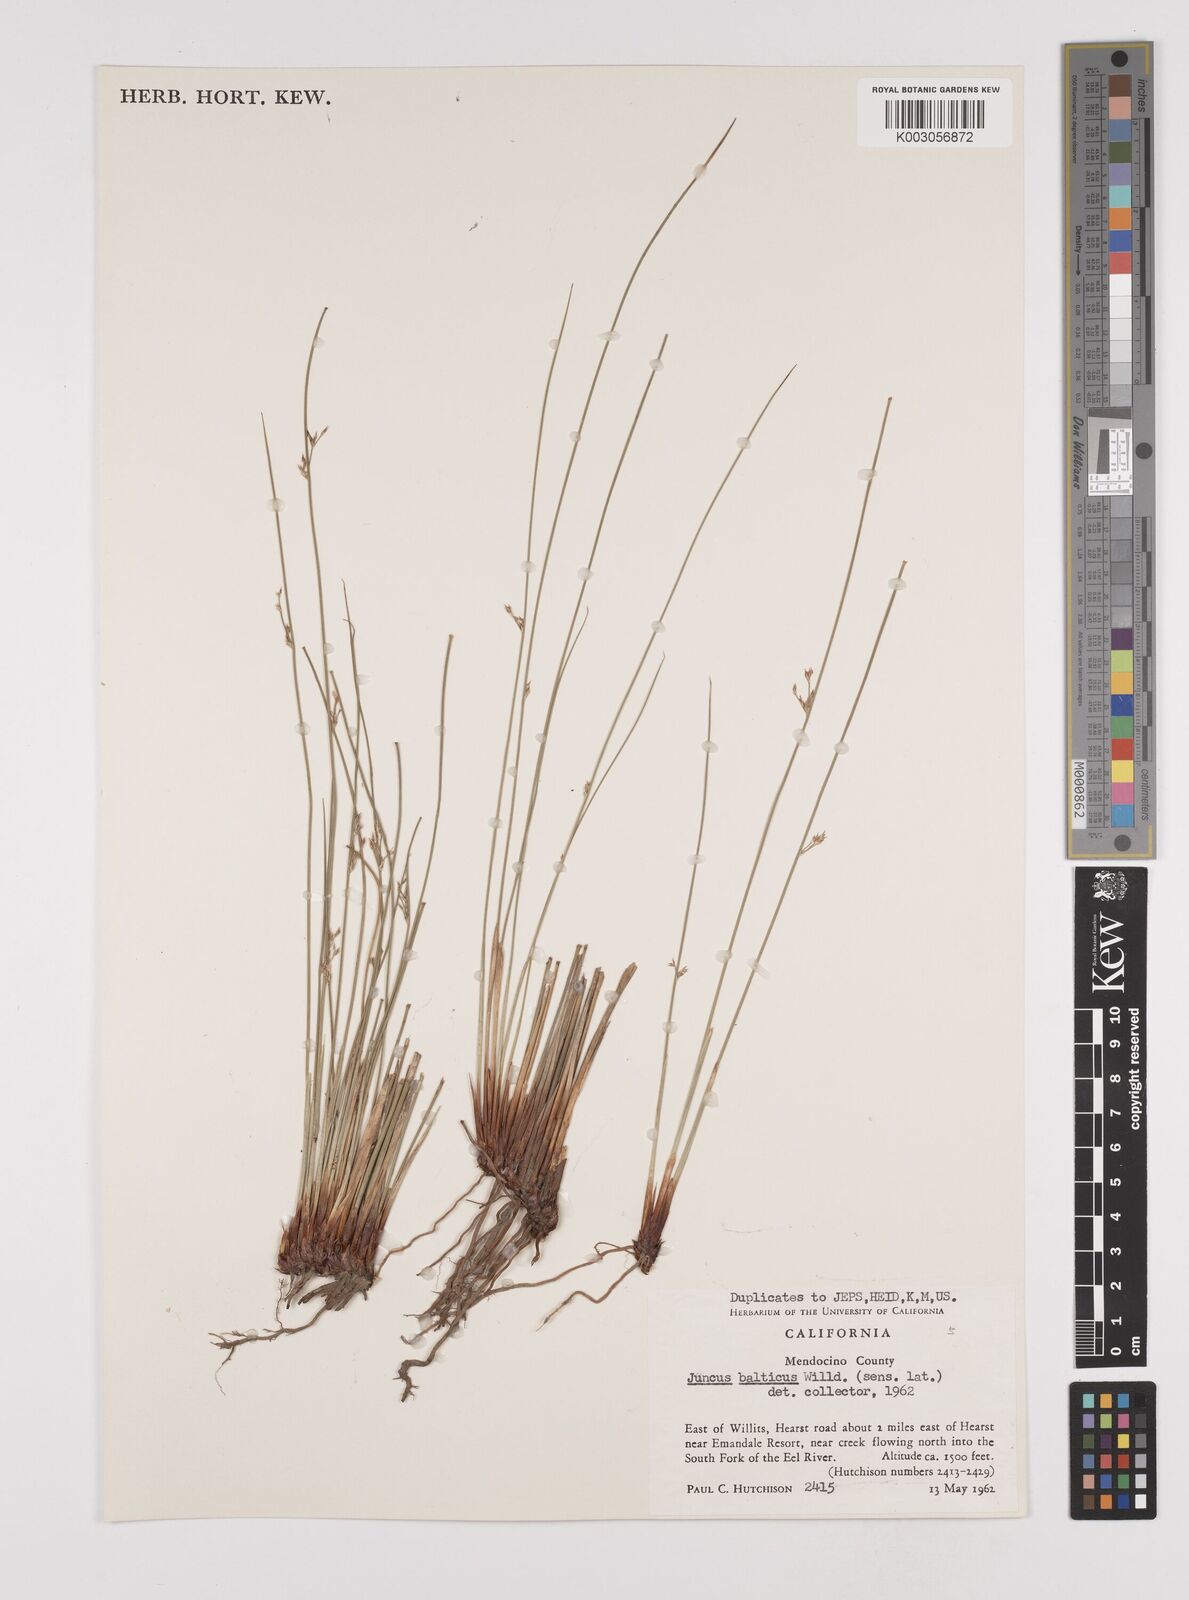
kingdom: Plantae
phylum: Tracheophyta
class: Liliopsida
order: Poales
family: Juncaceae
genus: Juncus
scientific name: Juncus balticus
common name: Baltic rush
